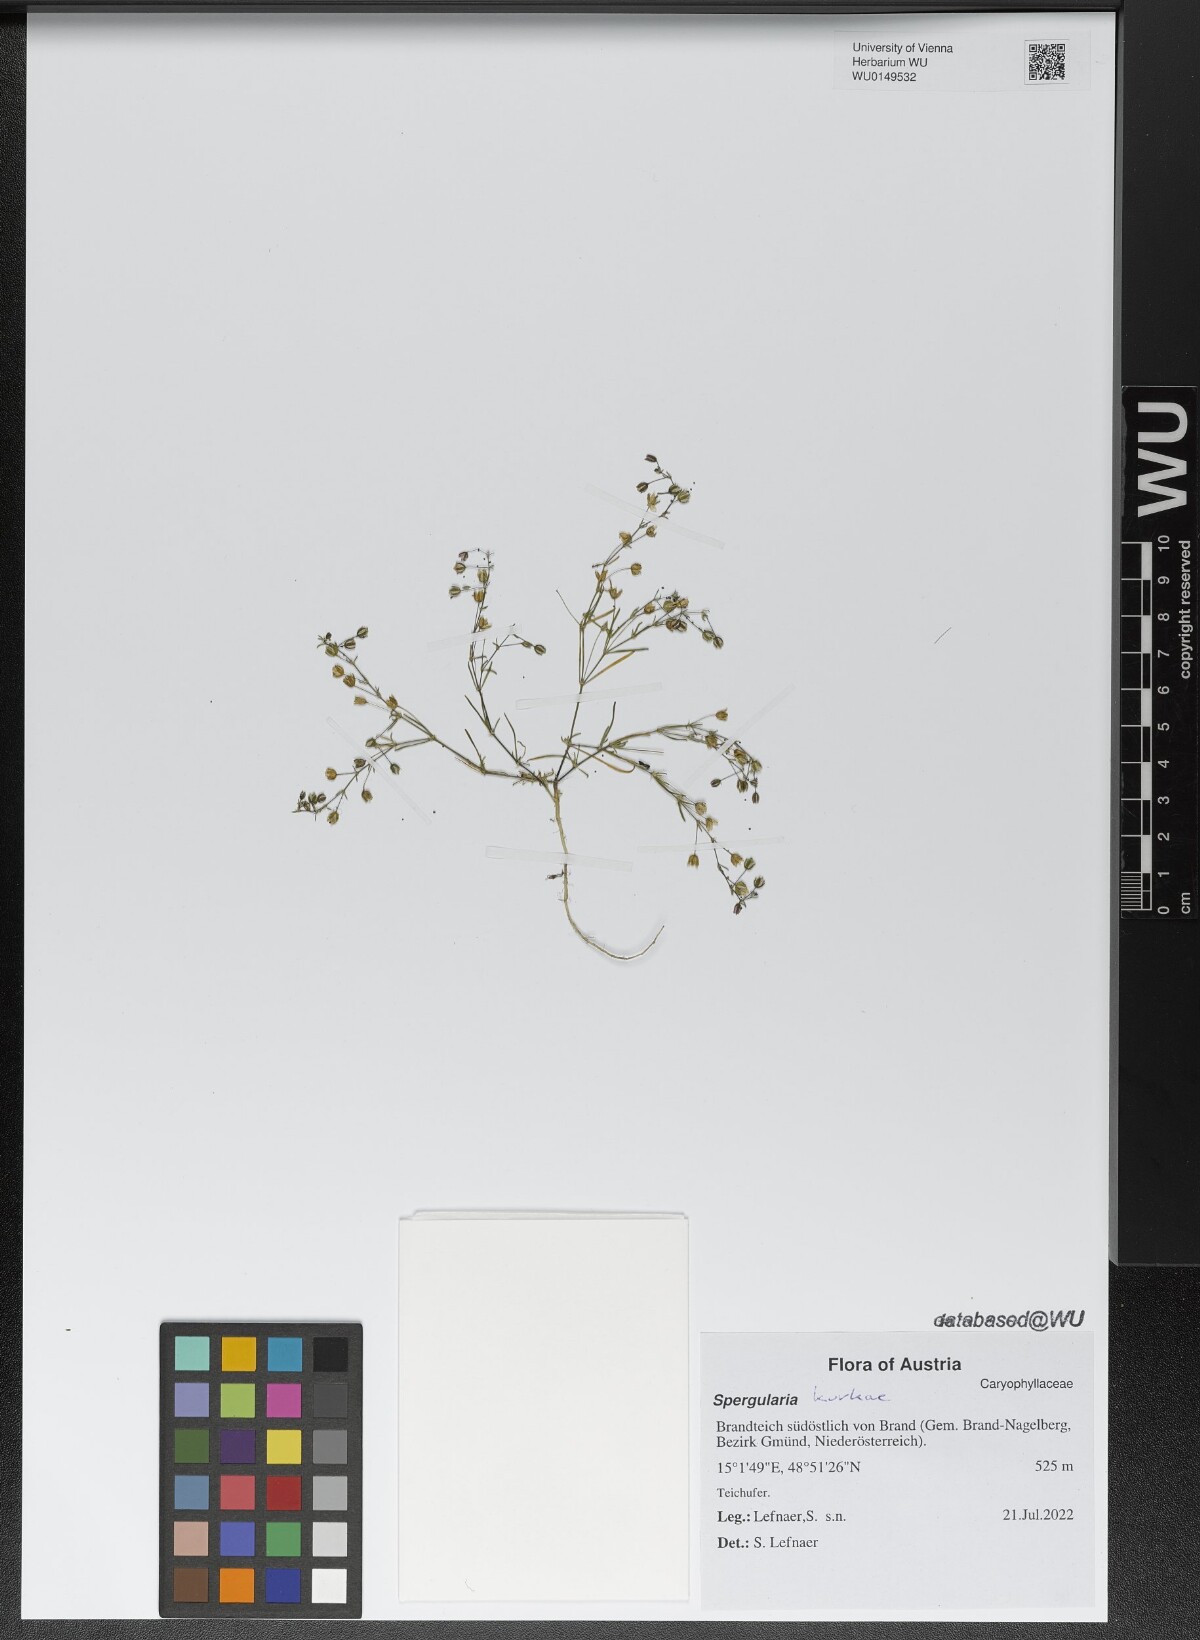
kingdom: Plantae
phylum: Tracheophyta
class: Magnoliopsida
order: Caryophyllales
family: Caryophyllaceae
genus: Spergularia
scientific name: Spergularia kurkae
